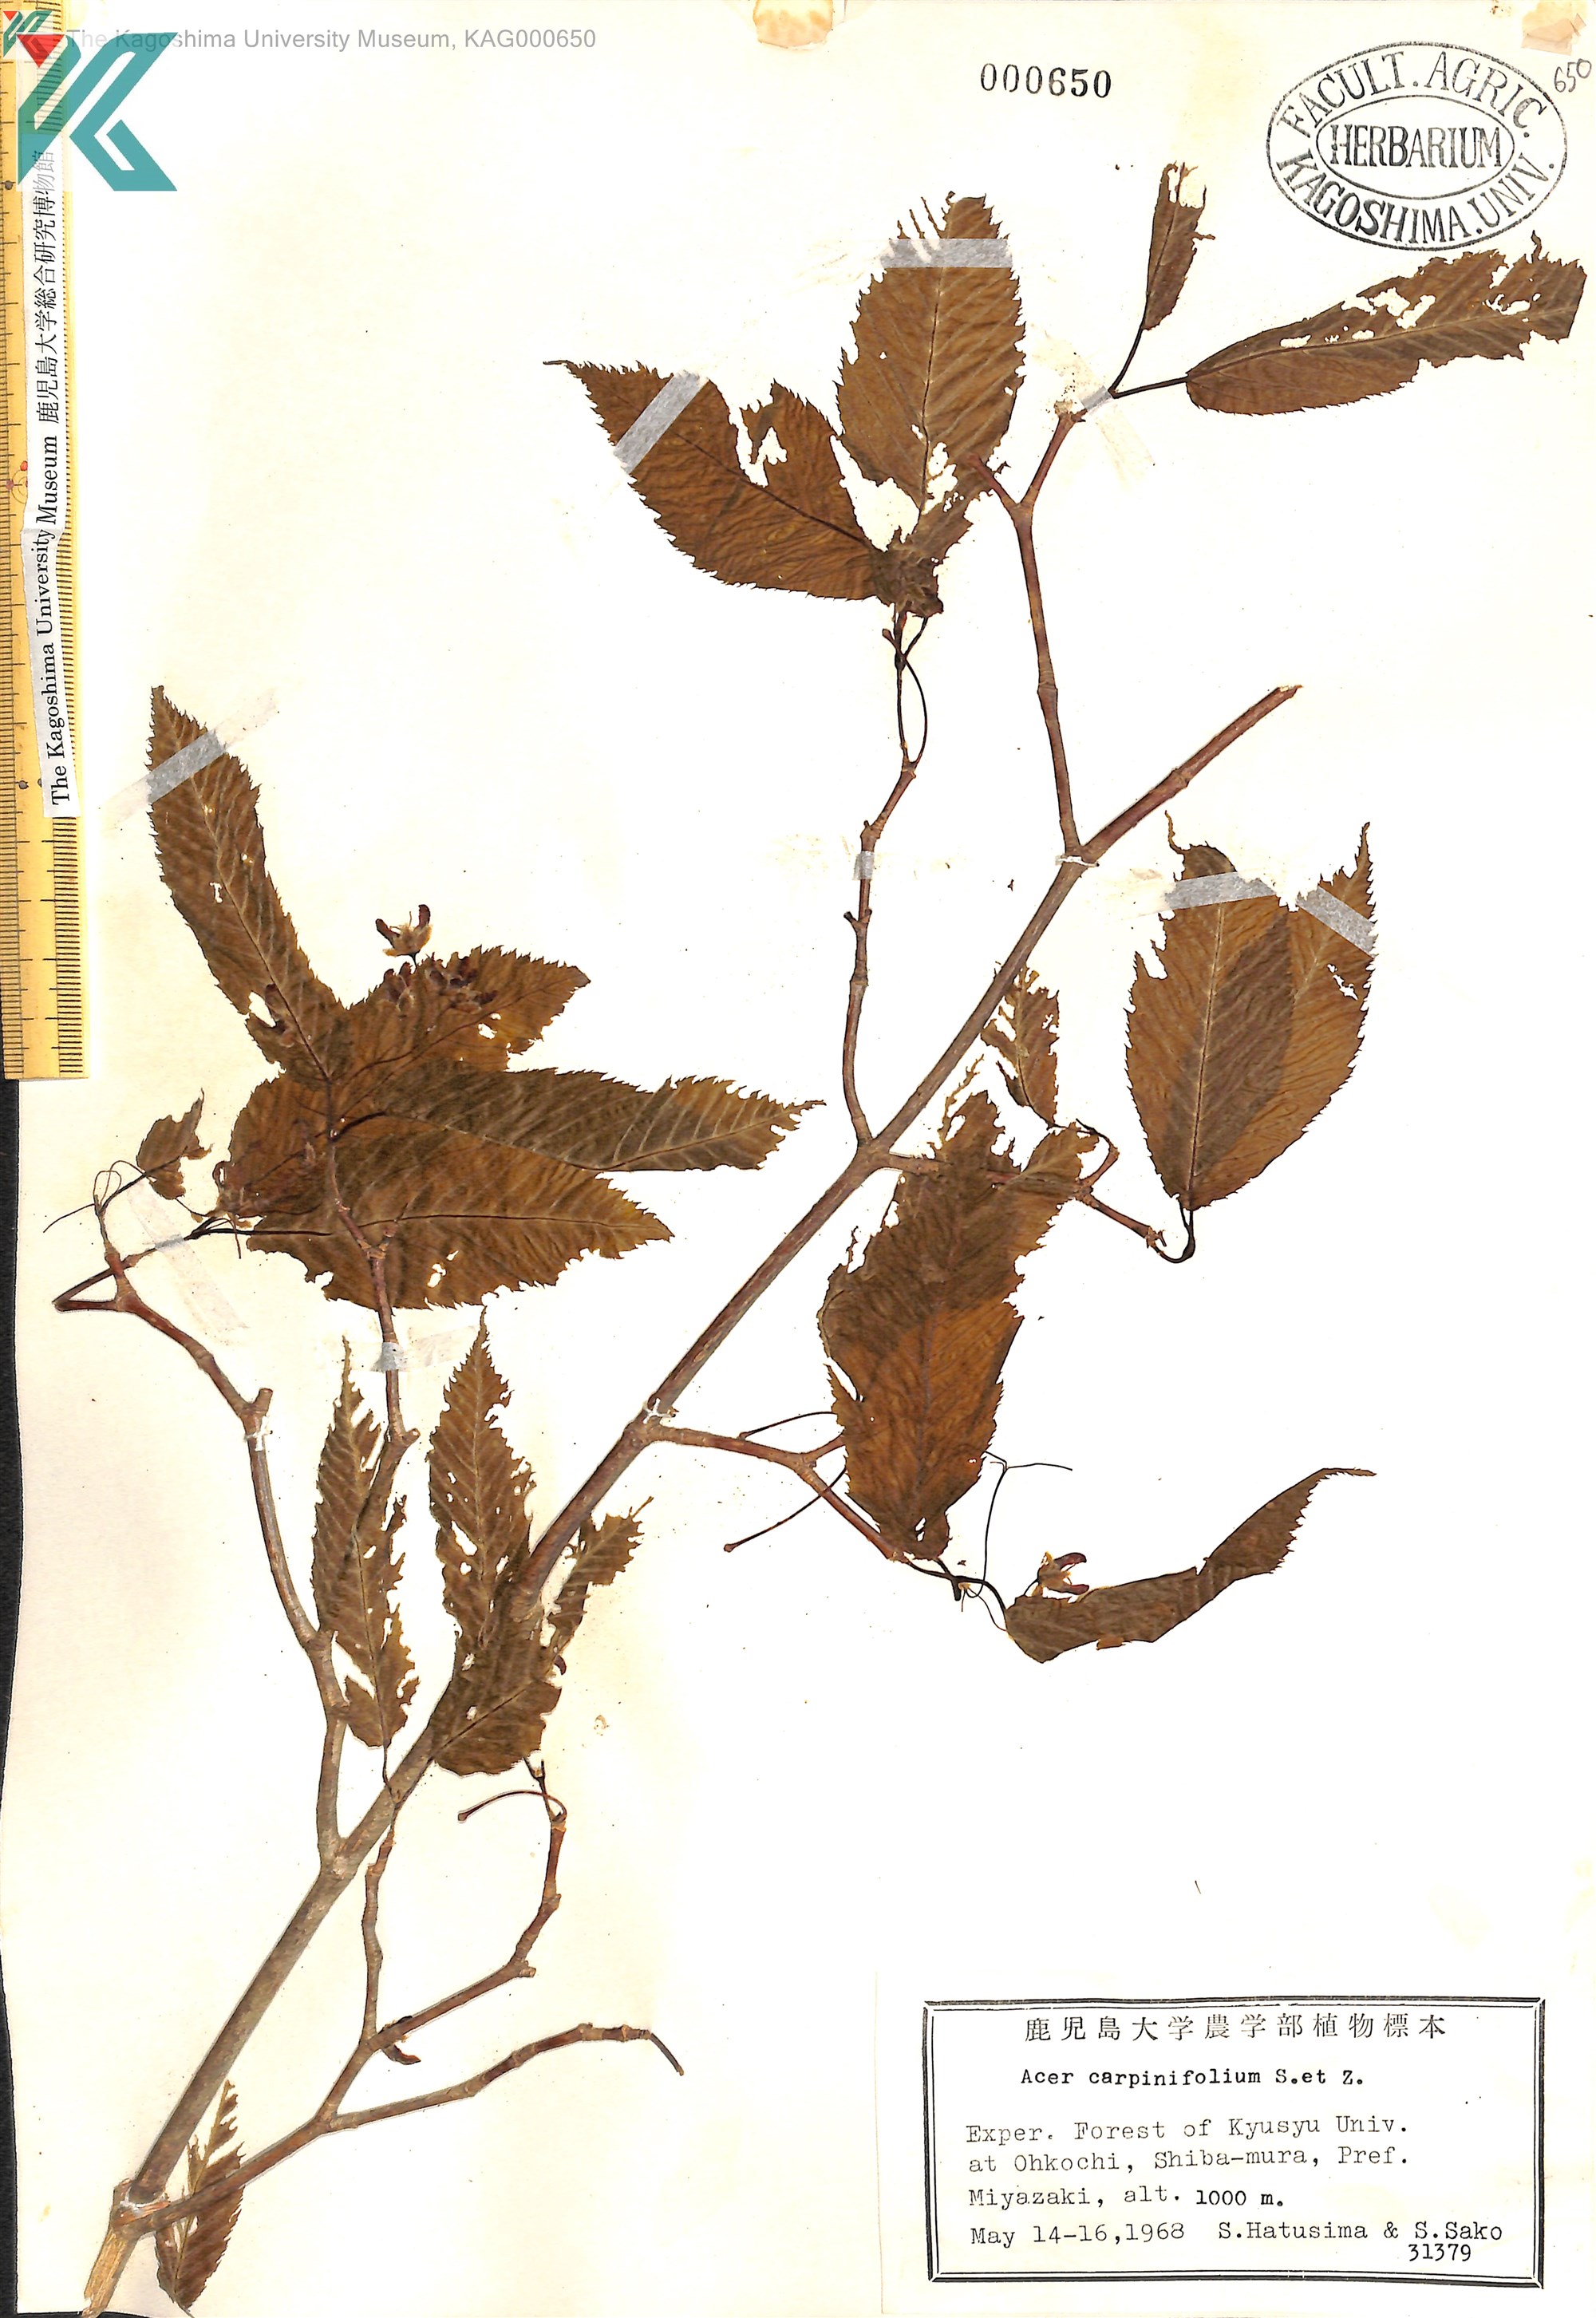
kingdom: Plantae
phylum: Tracheophyta
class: Magnoliopsida
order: Sapindales
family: Sapindaceae
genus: Acer
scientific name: Acer carpinifolium
